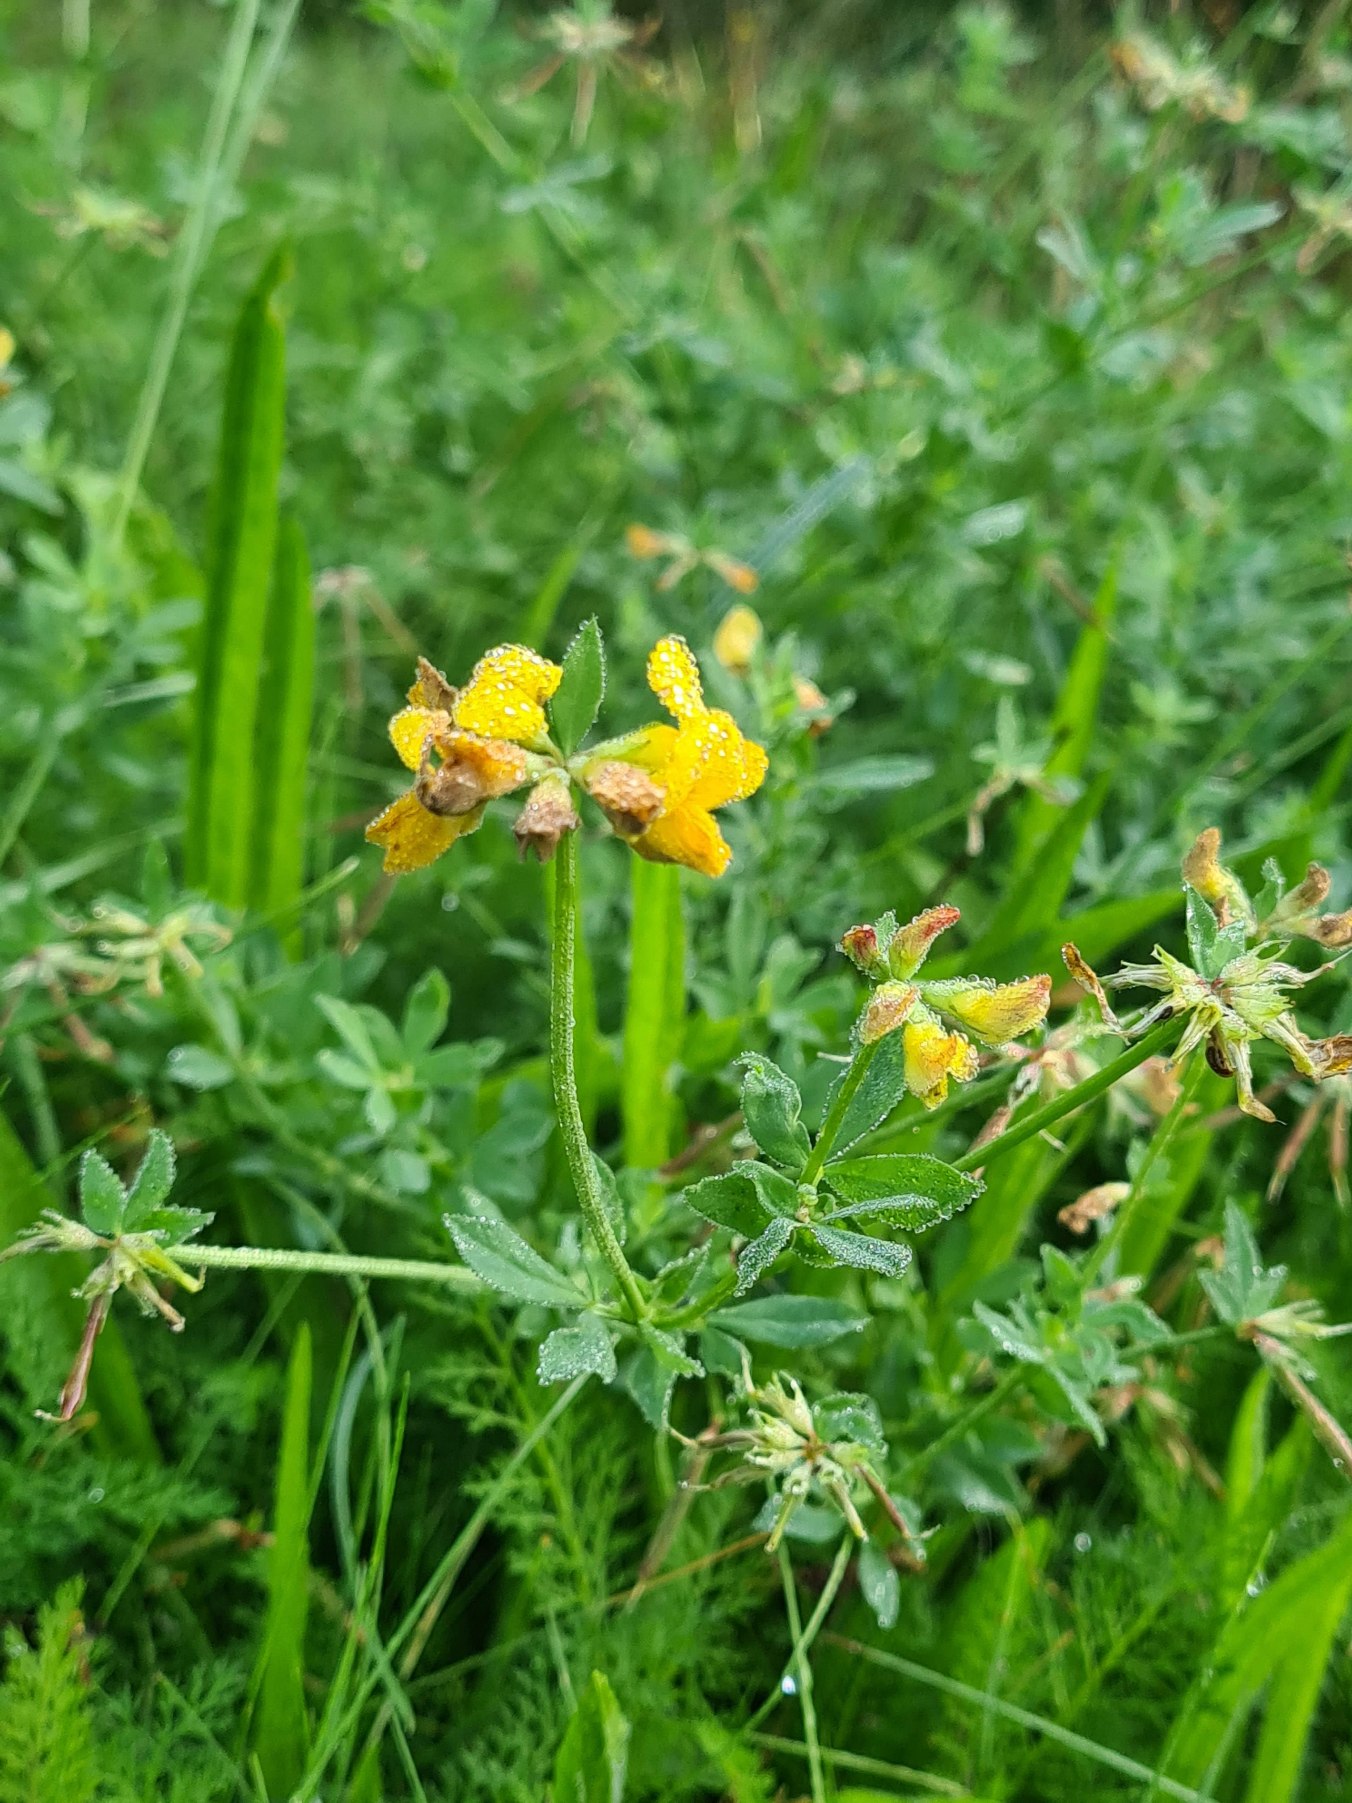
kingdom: Plantae
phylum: Tracheophyta
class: Magnoliopsida
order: Fabales
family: Fabaceae
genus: Lotus
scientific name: Lotus corniculatus
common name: Foder-kællingetand
